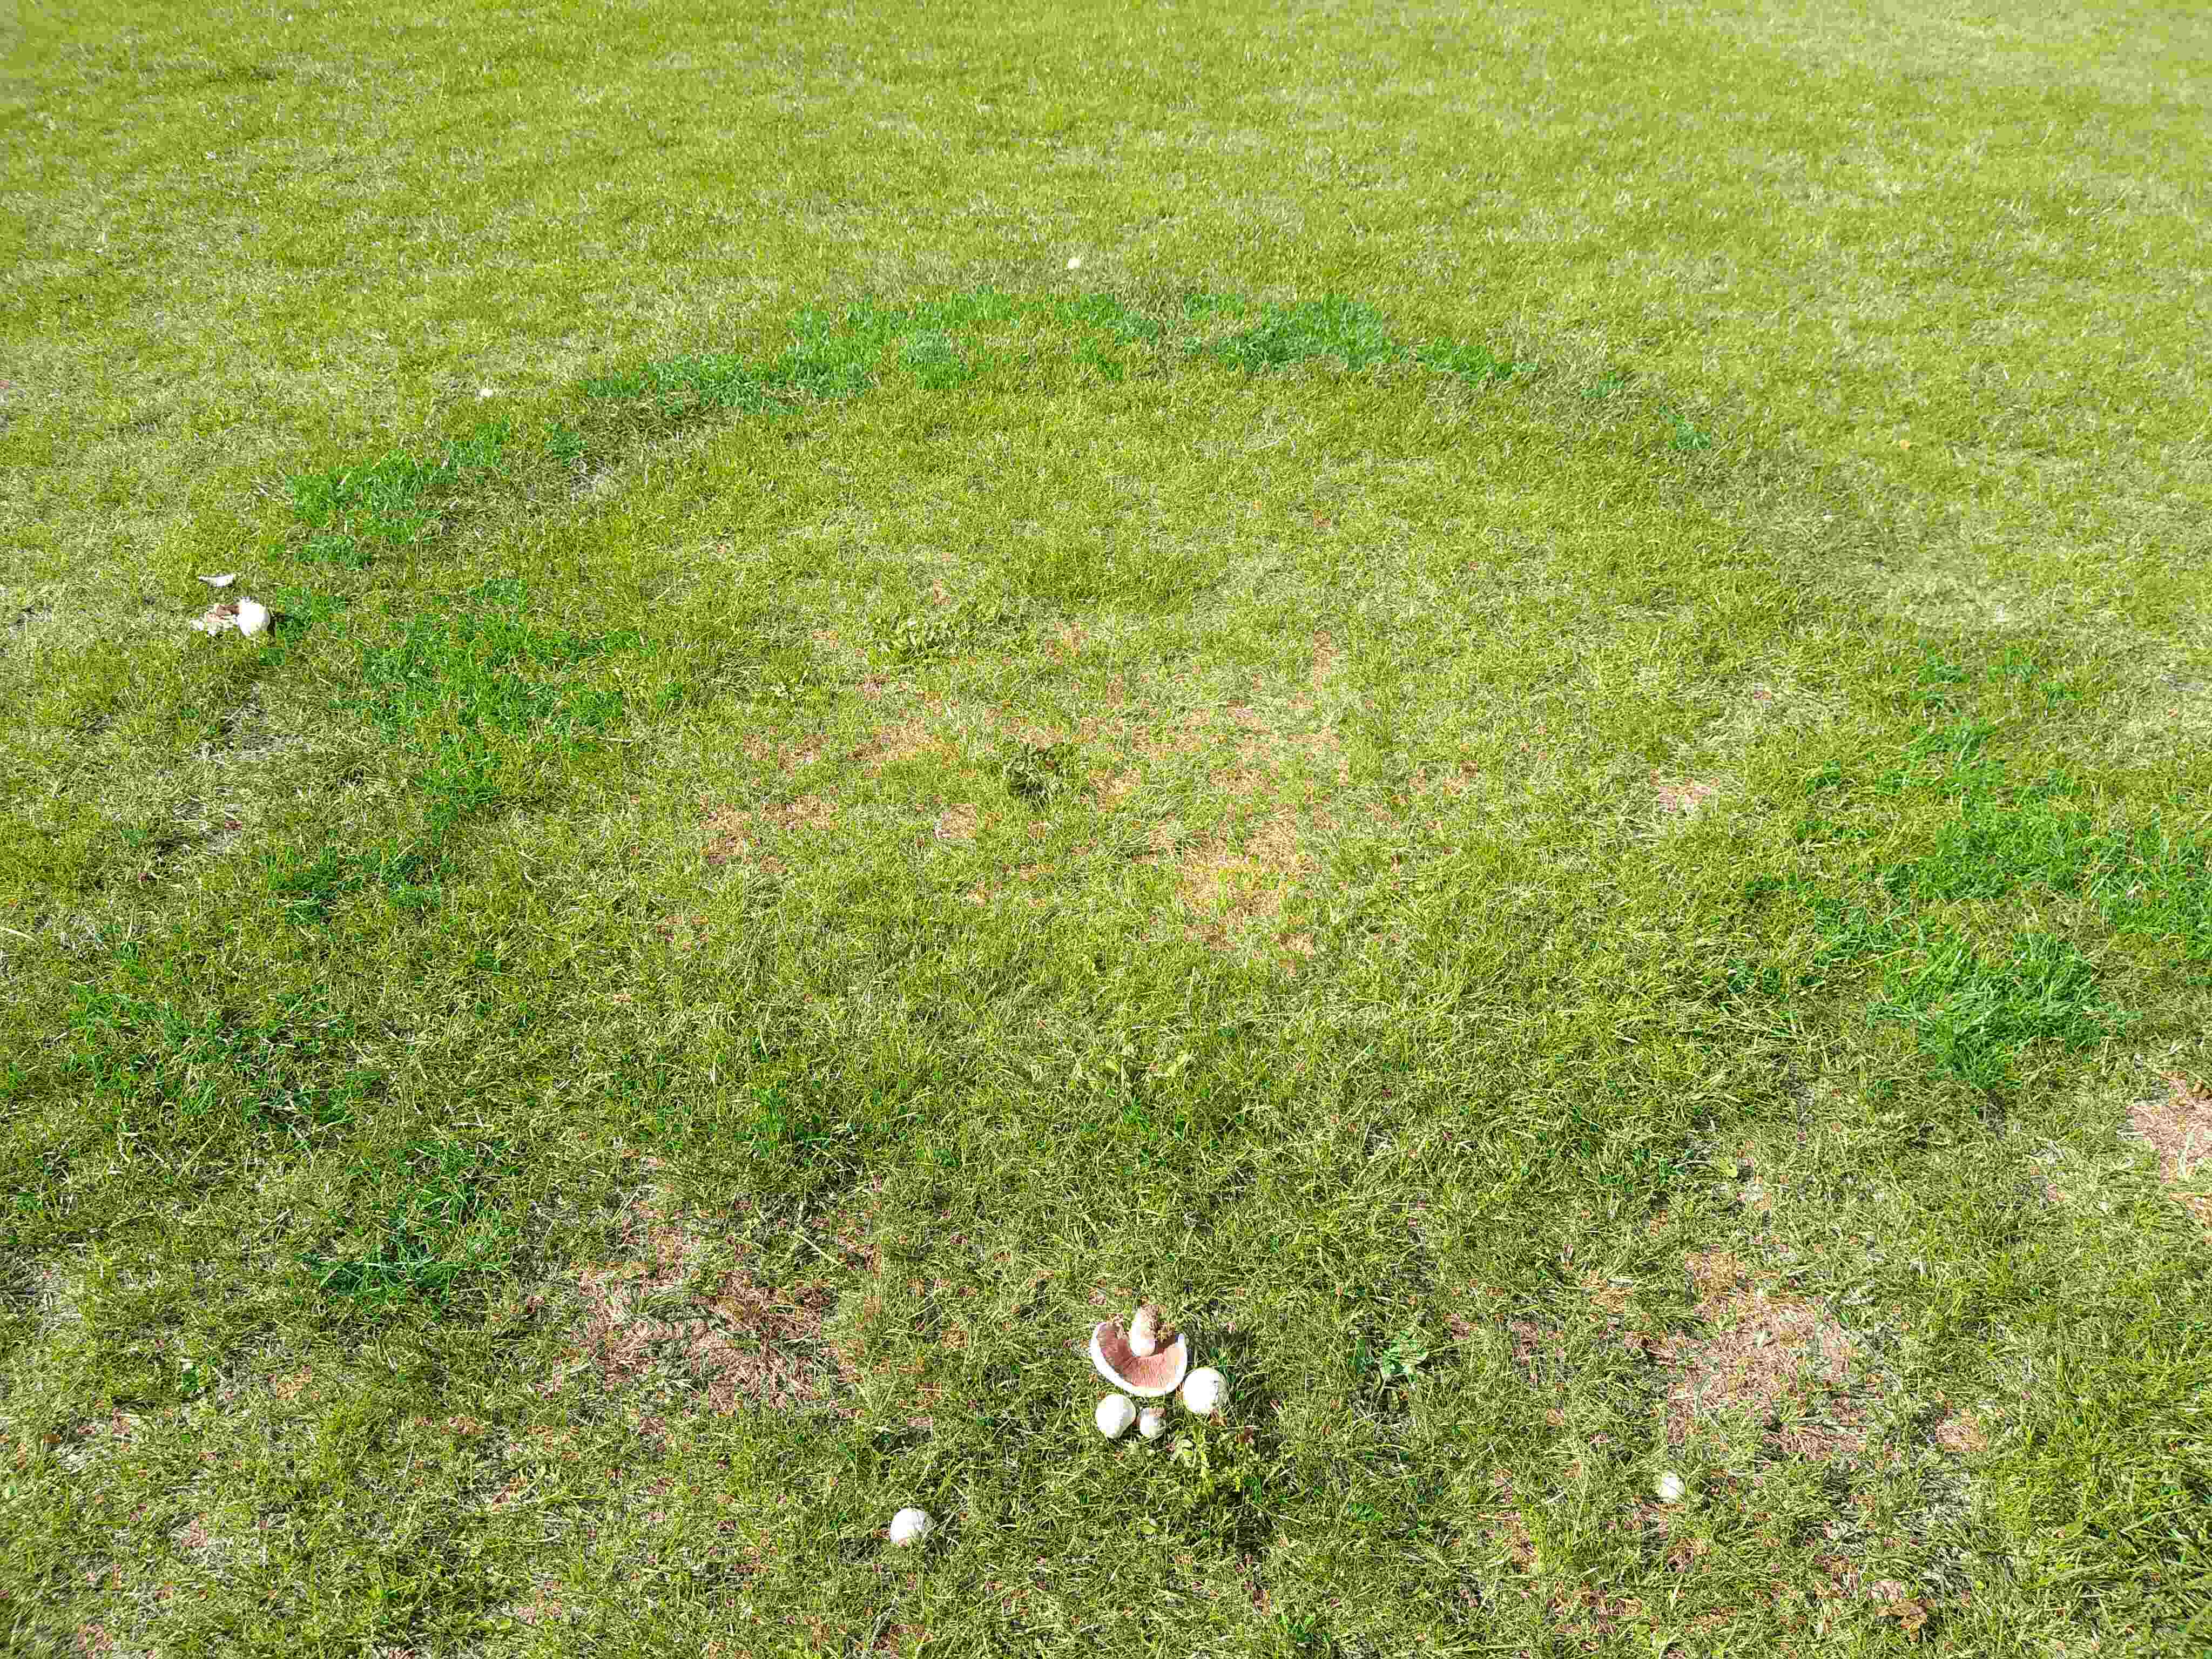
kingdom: Fungi
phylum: Basidiomycota
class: Agaricomycetes
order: Agaricales
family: Agaricaceae
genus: Agaricus
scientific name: Agaricus campestris
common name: mark-champignon
